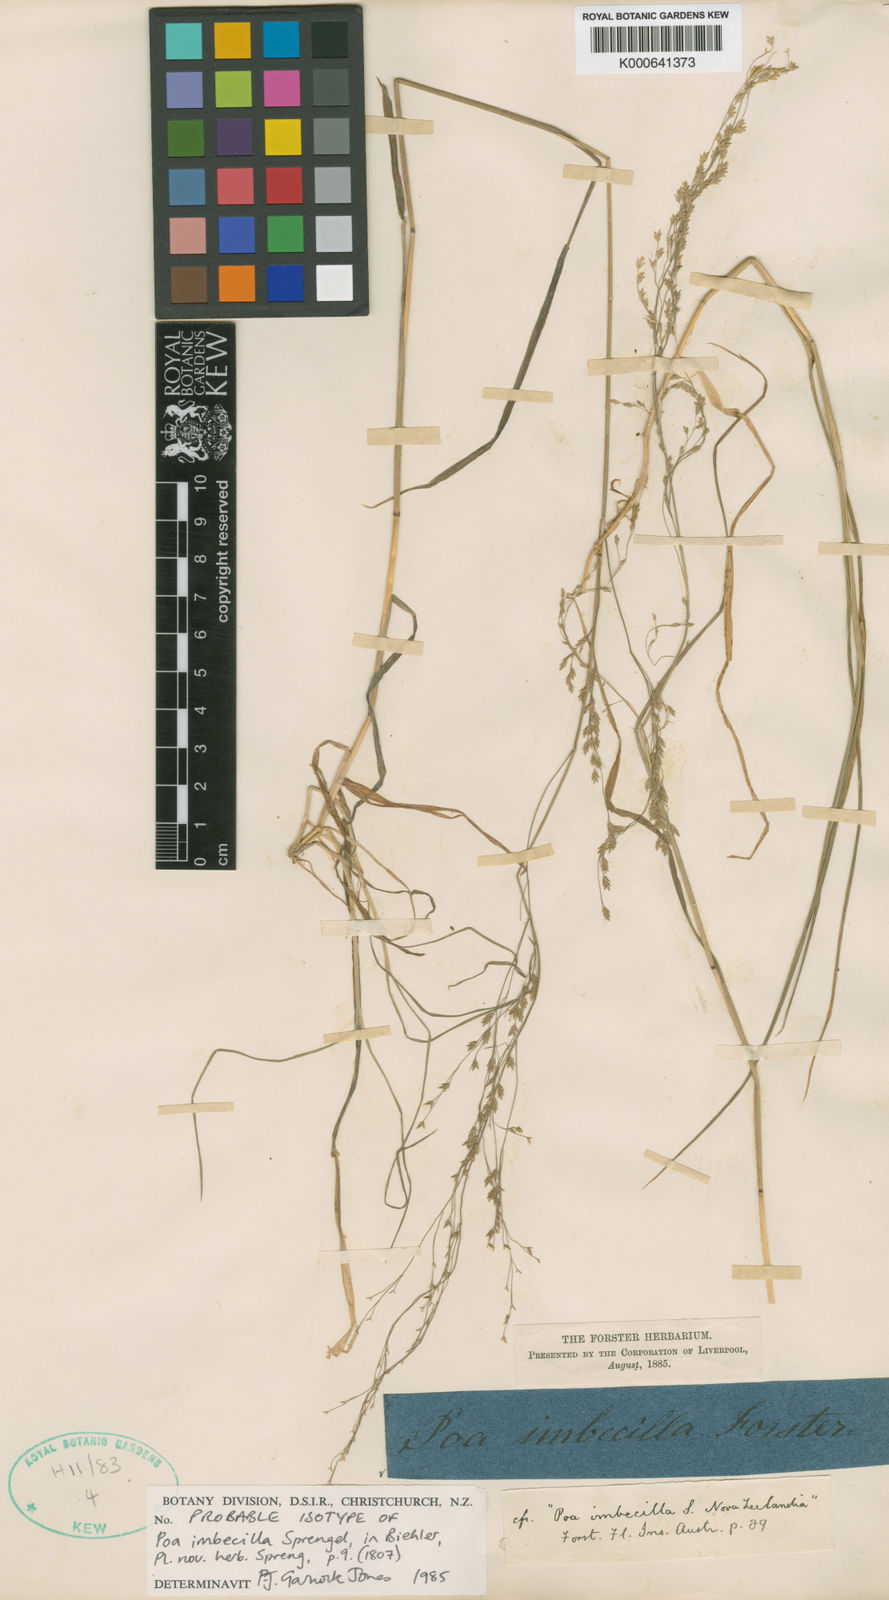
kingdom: Plantae
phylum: Tracheophyta
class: Liliopsida
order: Poales
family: Poaceae
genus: Poa
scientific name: Poa
